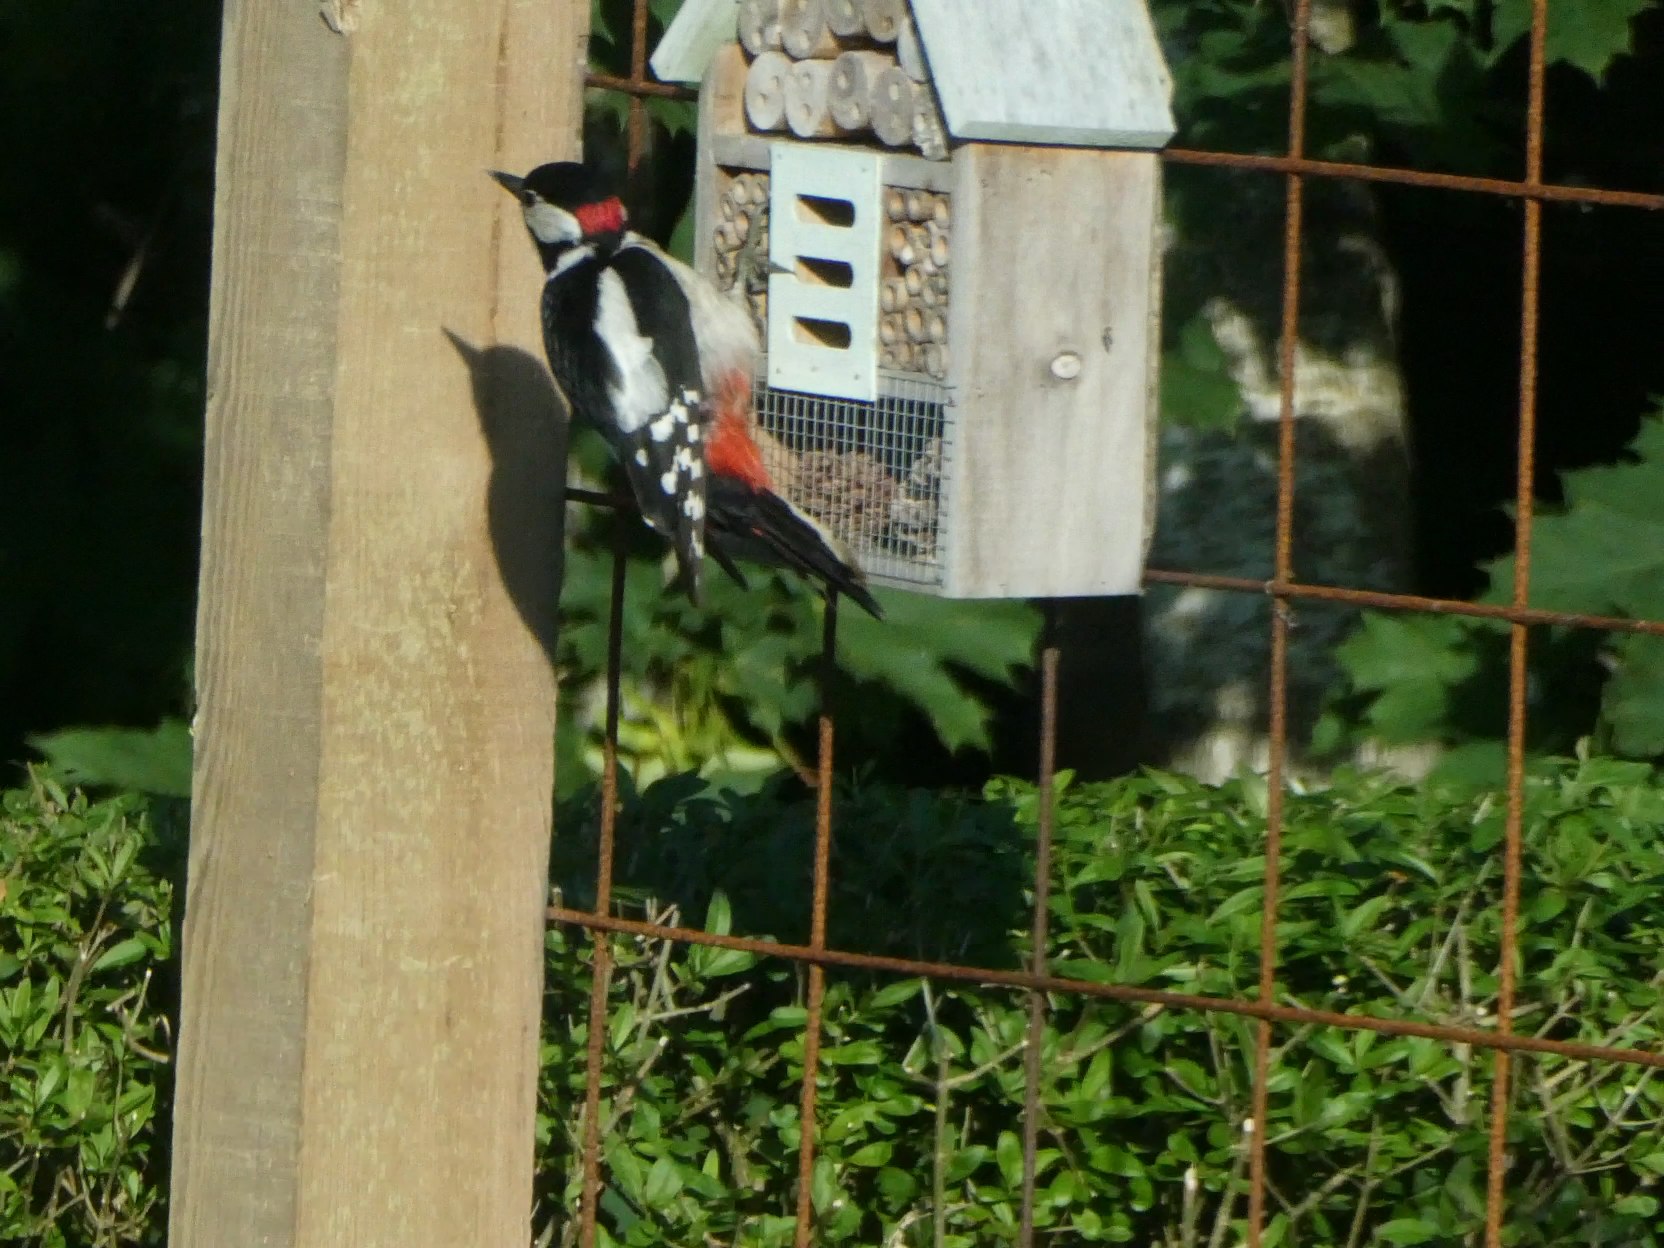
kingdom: Animalia
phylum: Chordata
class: Aves
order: Piciformes
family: Picidae
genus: Dendrocopos
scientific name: Dendrocopos major
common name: Stor flagspætte
